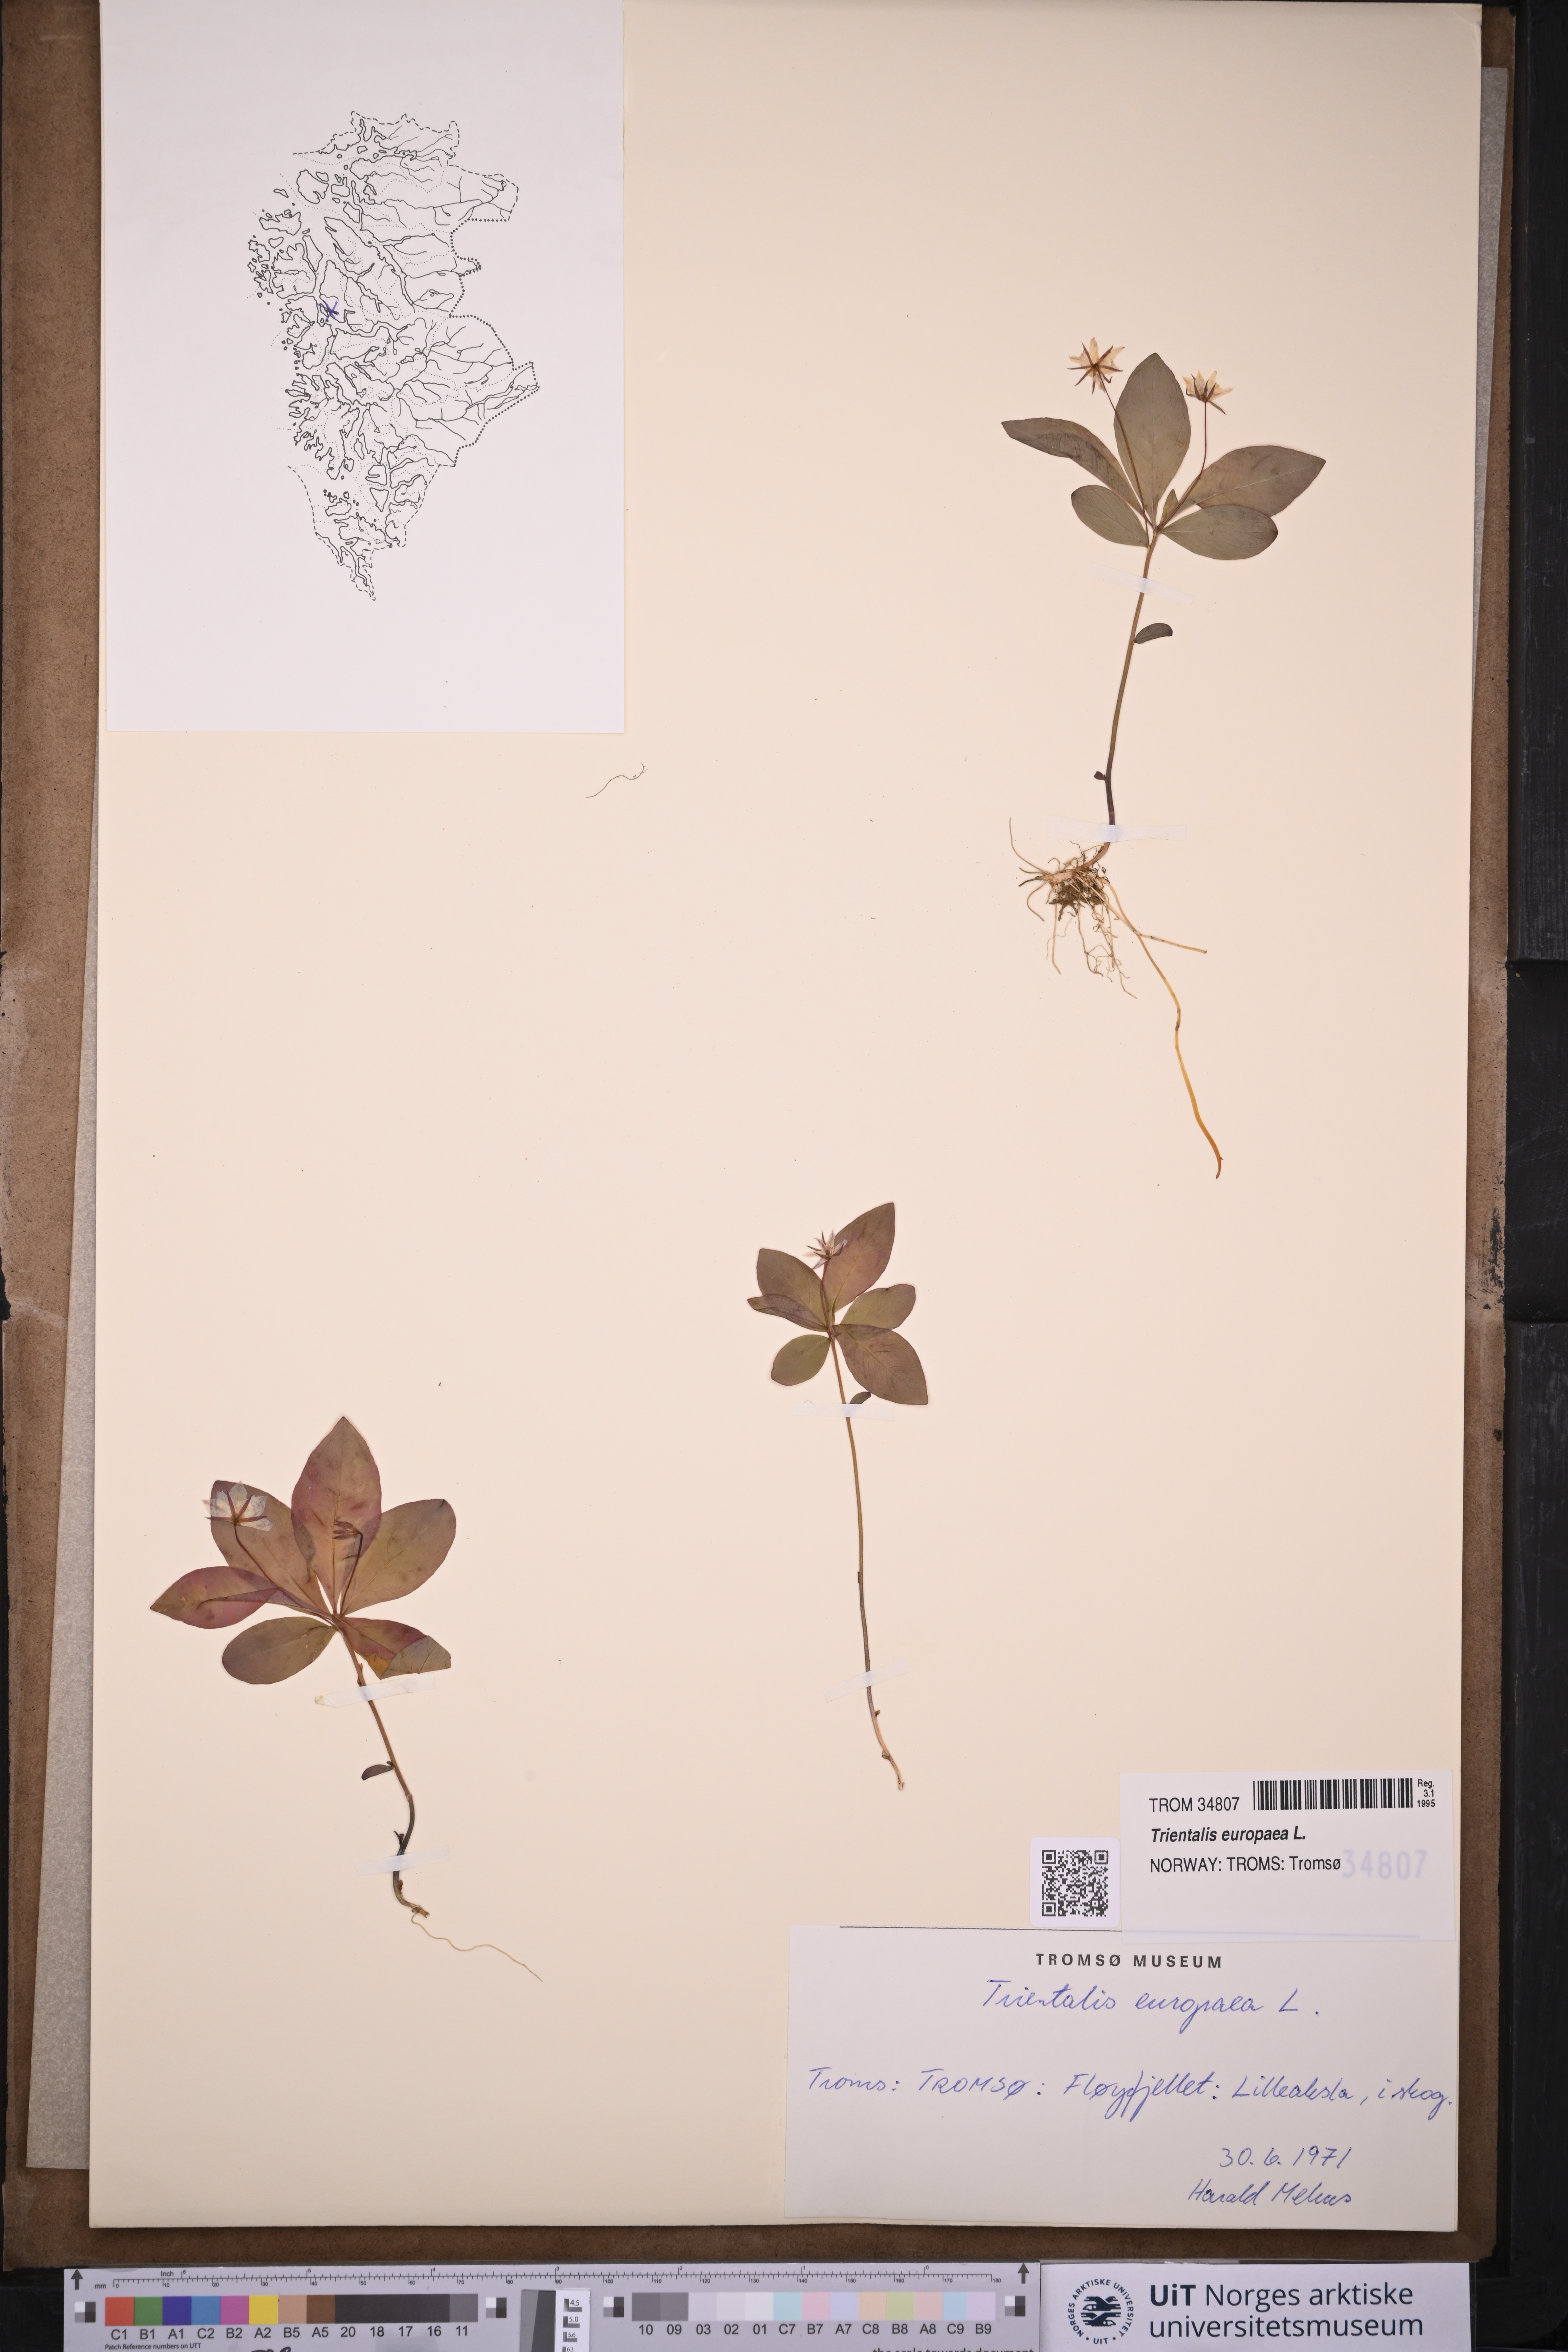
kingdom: Plantae
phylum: Tracheophyta
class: Magnoliopsida
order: Ericales
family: Primulaceae
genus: Lysimachia
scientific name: Lysimachia europaea
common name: Arctic starflower
